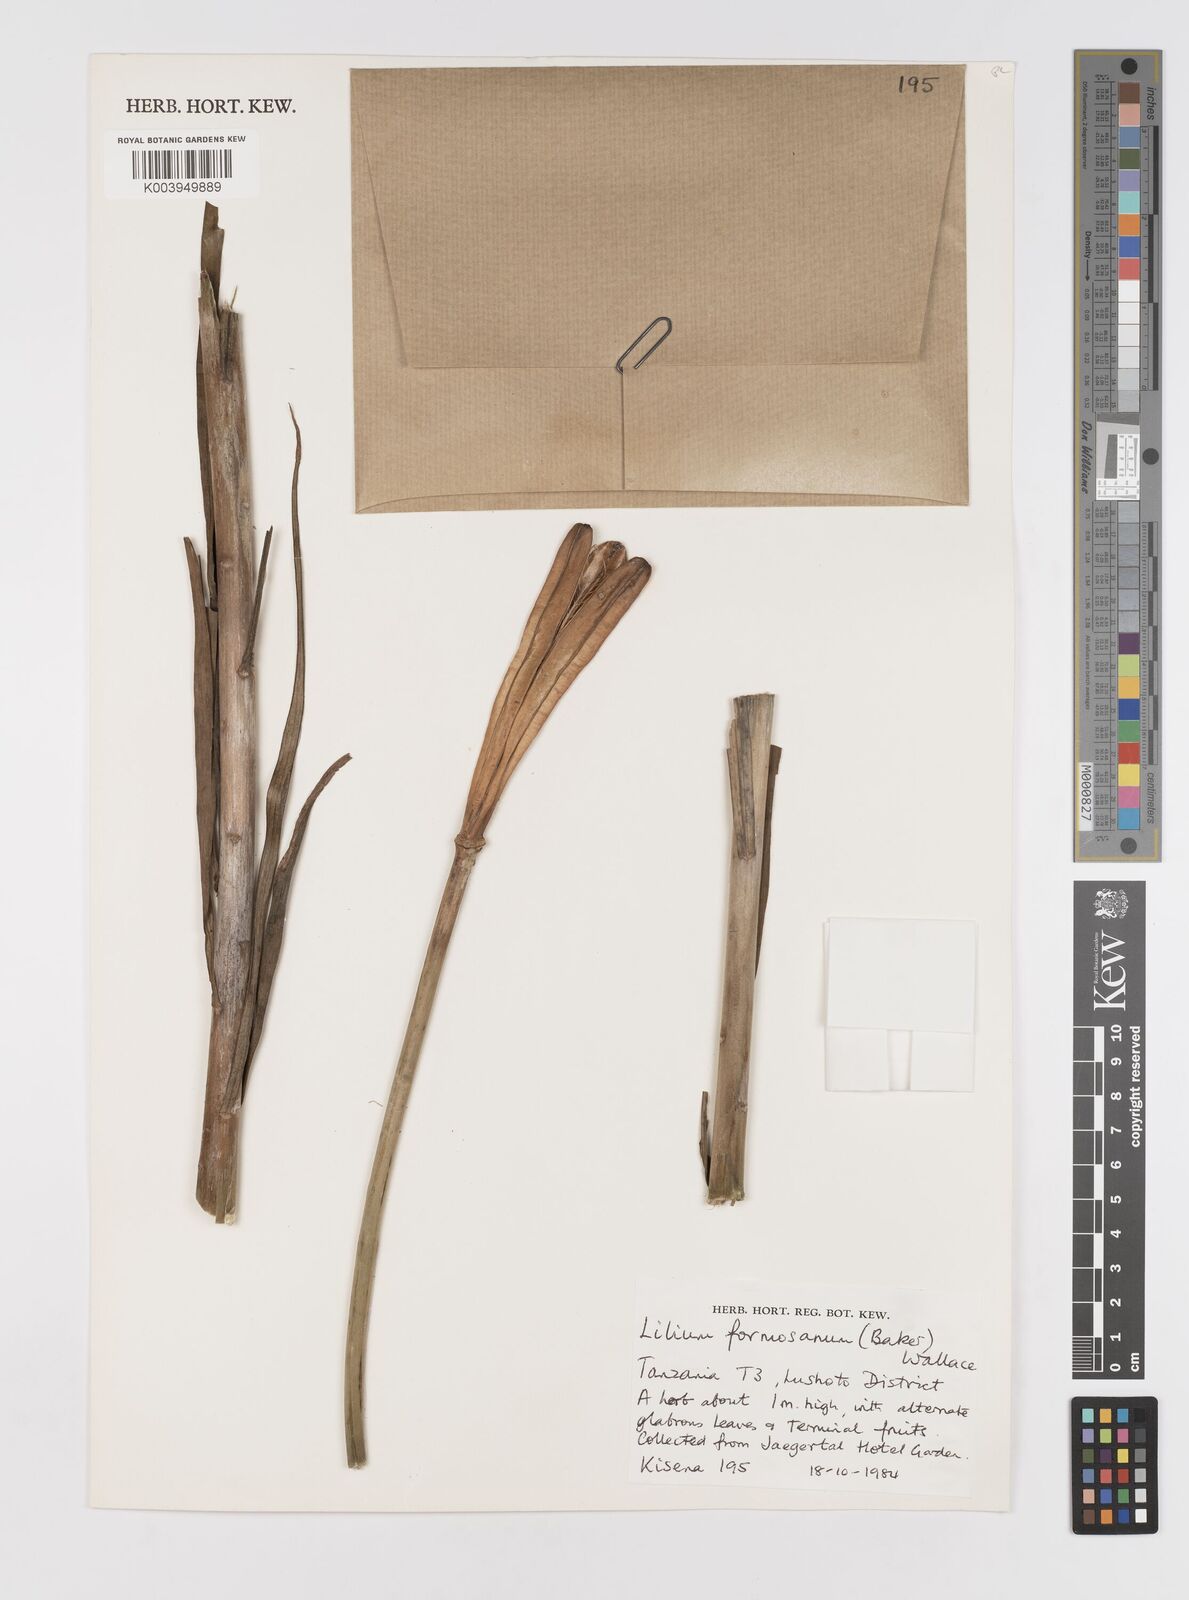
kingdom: Plantae
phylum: Tracheophyta
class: Liliopsida
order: Liliales
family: Liliaceae
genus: Lilium
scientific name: Lilium formosanum
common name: Formosa lily
